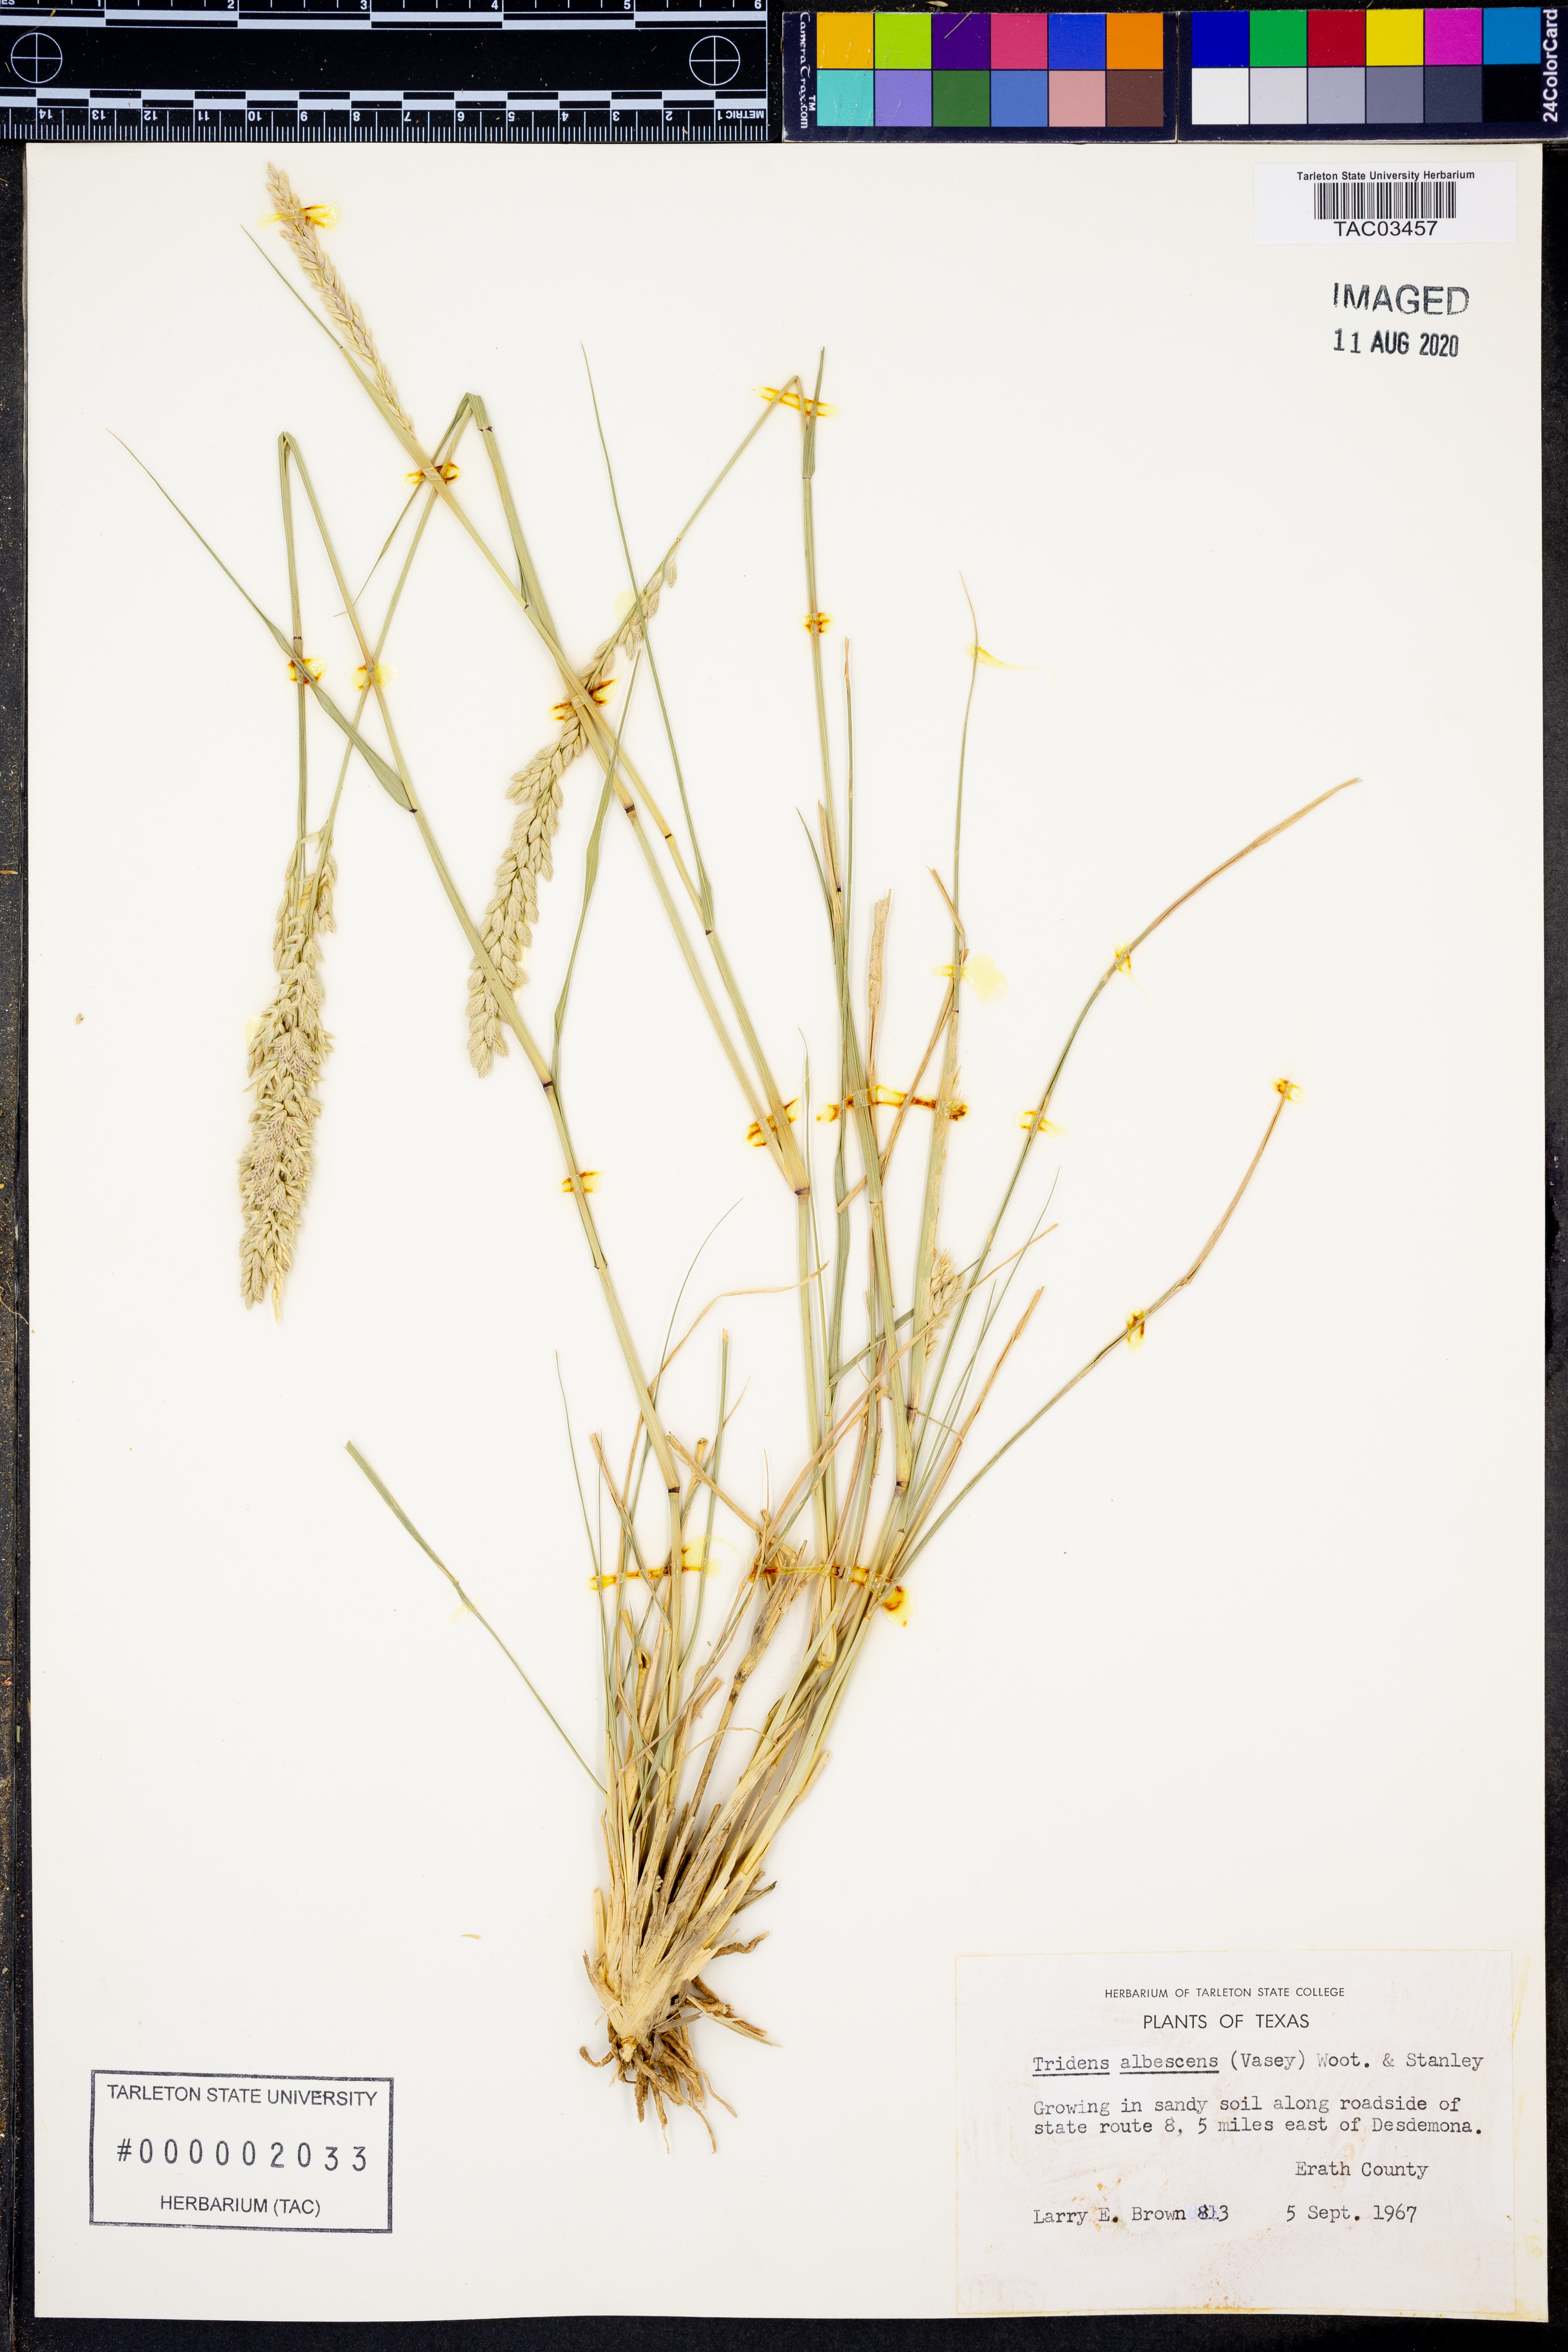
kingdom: Plantae
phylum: Tracheophyta
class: Liliopsida
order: Poales
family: Poaceae
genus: Tridens
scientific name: Tridens albescens
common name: White tridens
